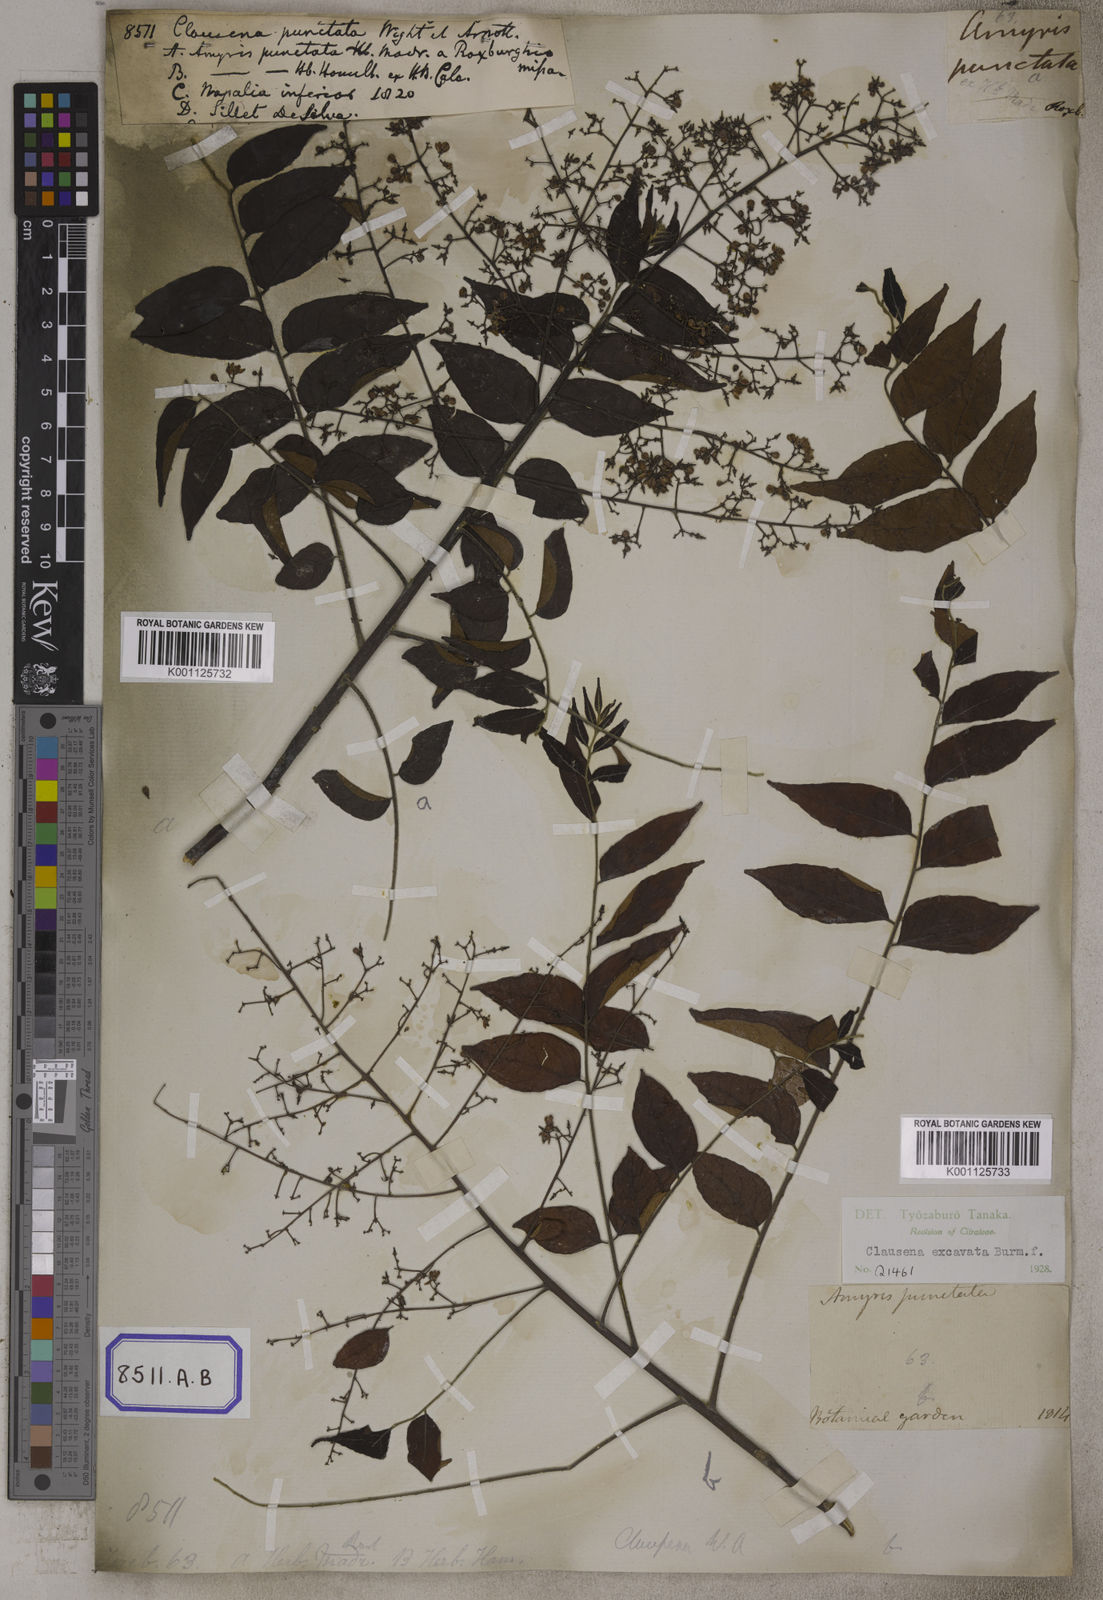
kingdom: Plantae
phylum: Tracheophyta
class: Magnoliopsida
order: Sapindales
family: Rutaceae
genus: Clausena
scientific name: Clausena
